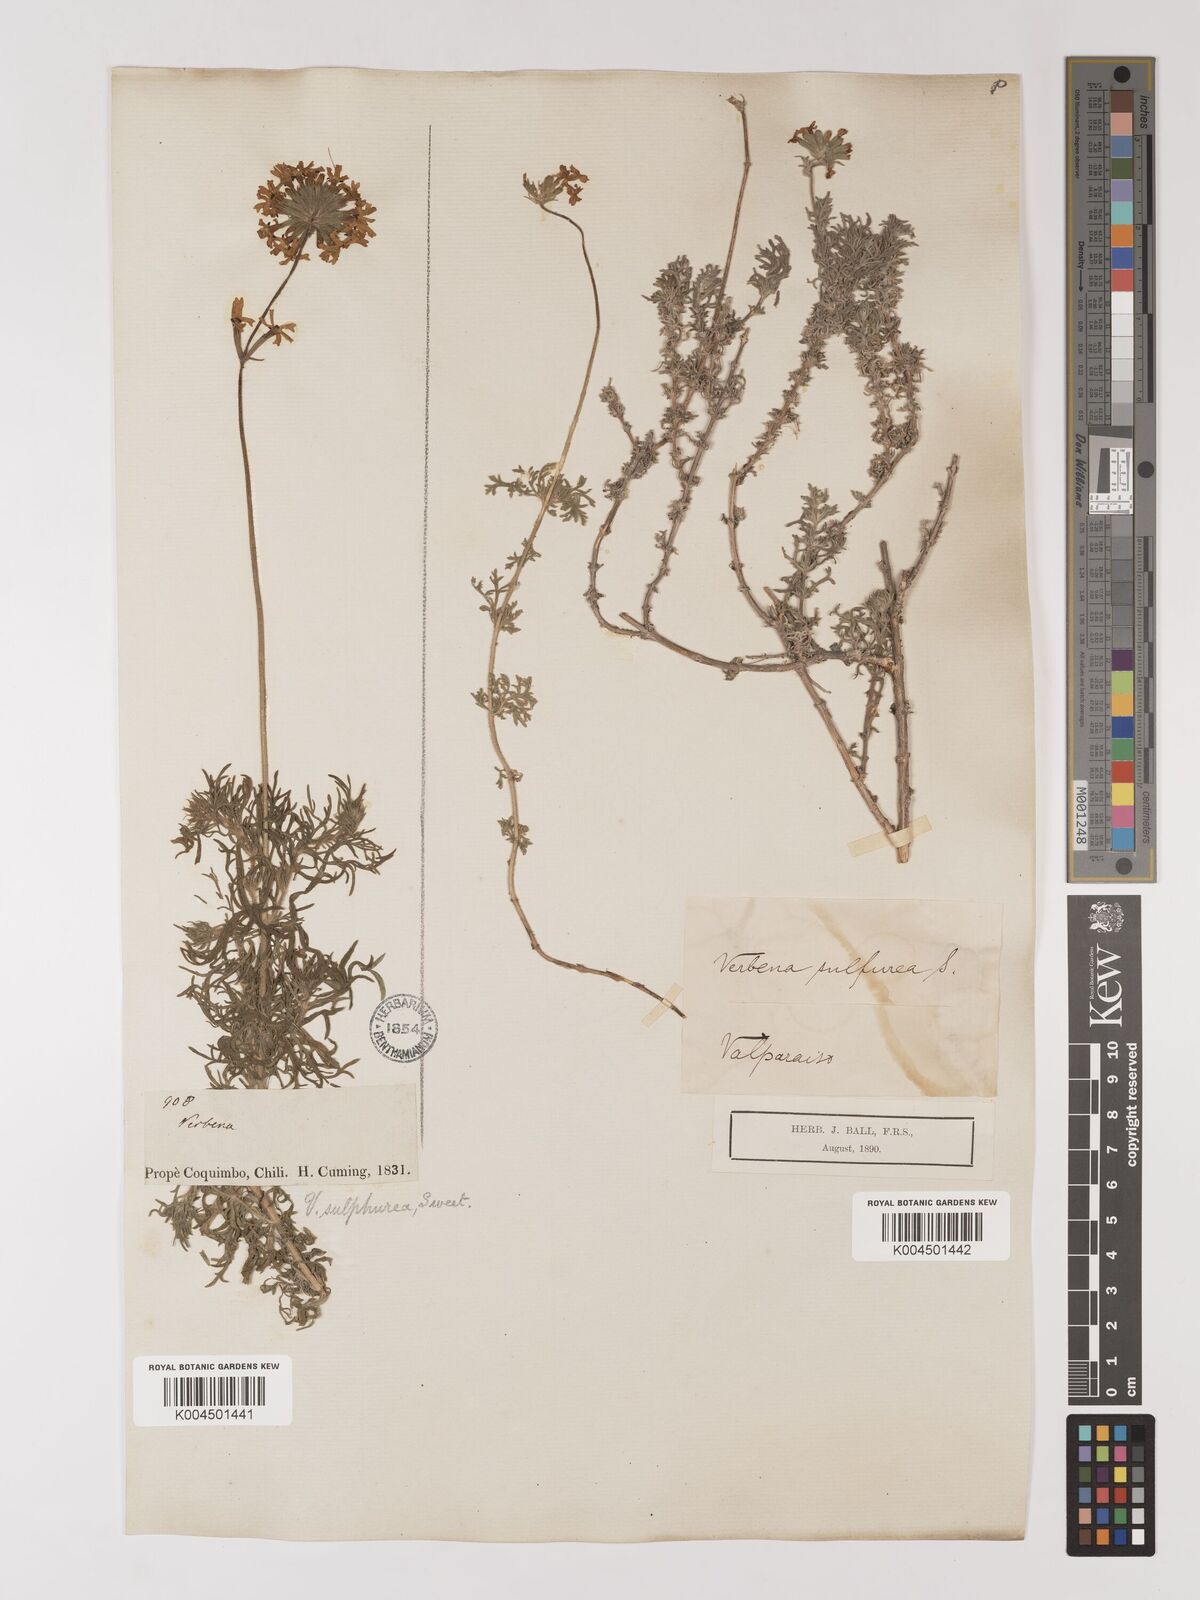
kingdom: Plantae
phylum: Tracheophyta
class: Magnoliopsida
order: Lamiales
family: Verbenaceae
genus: Verbena
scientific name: Verbena sulphurea
